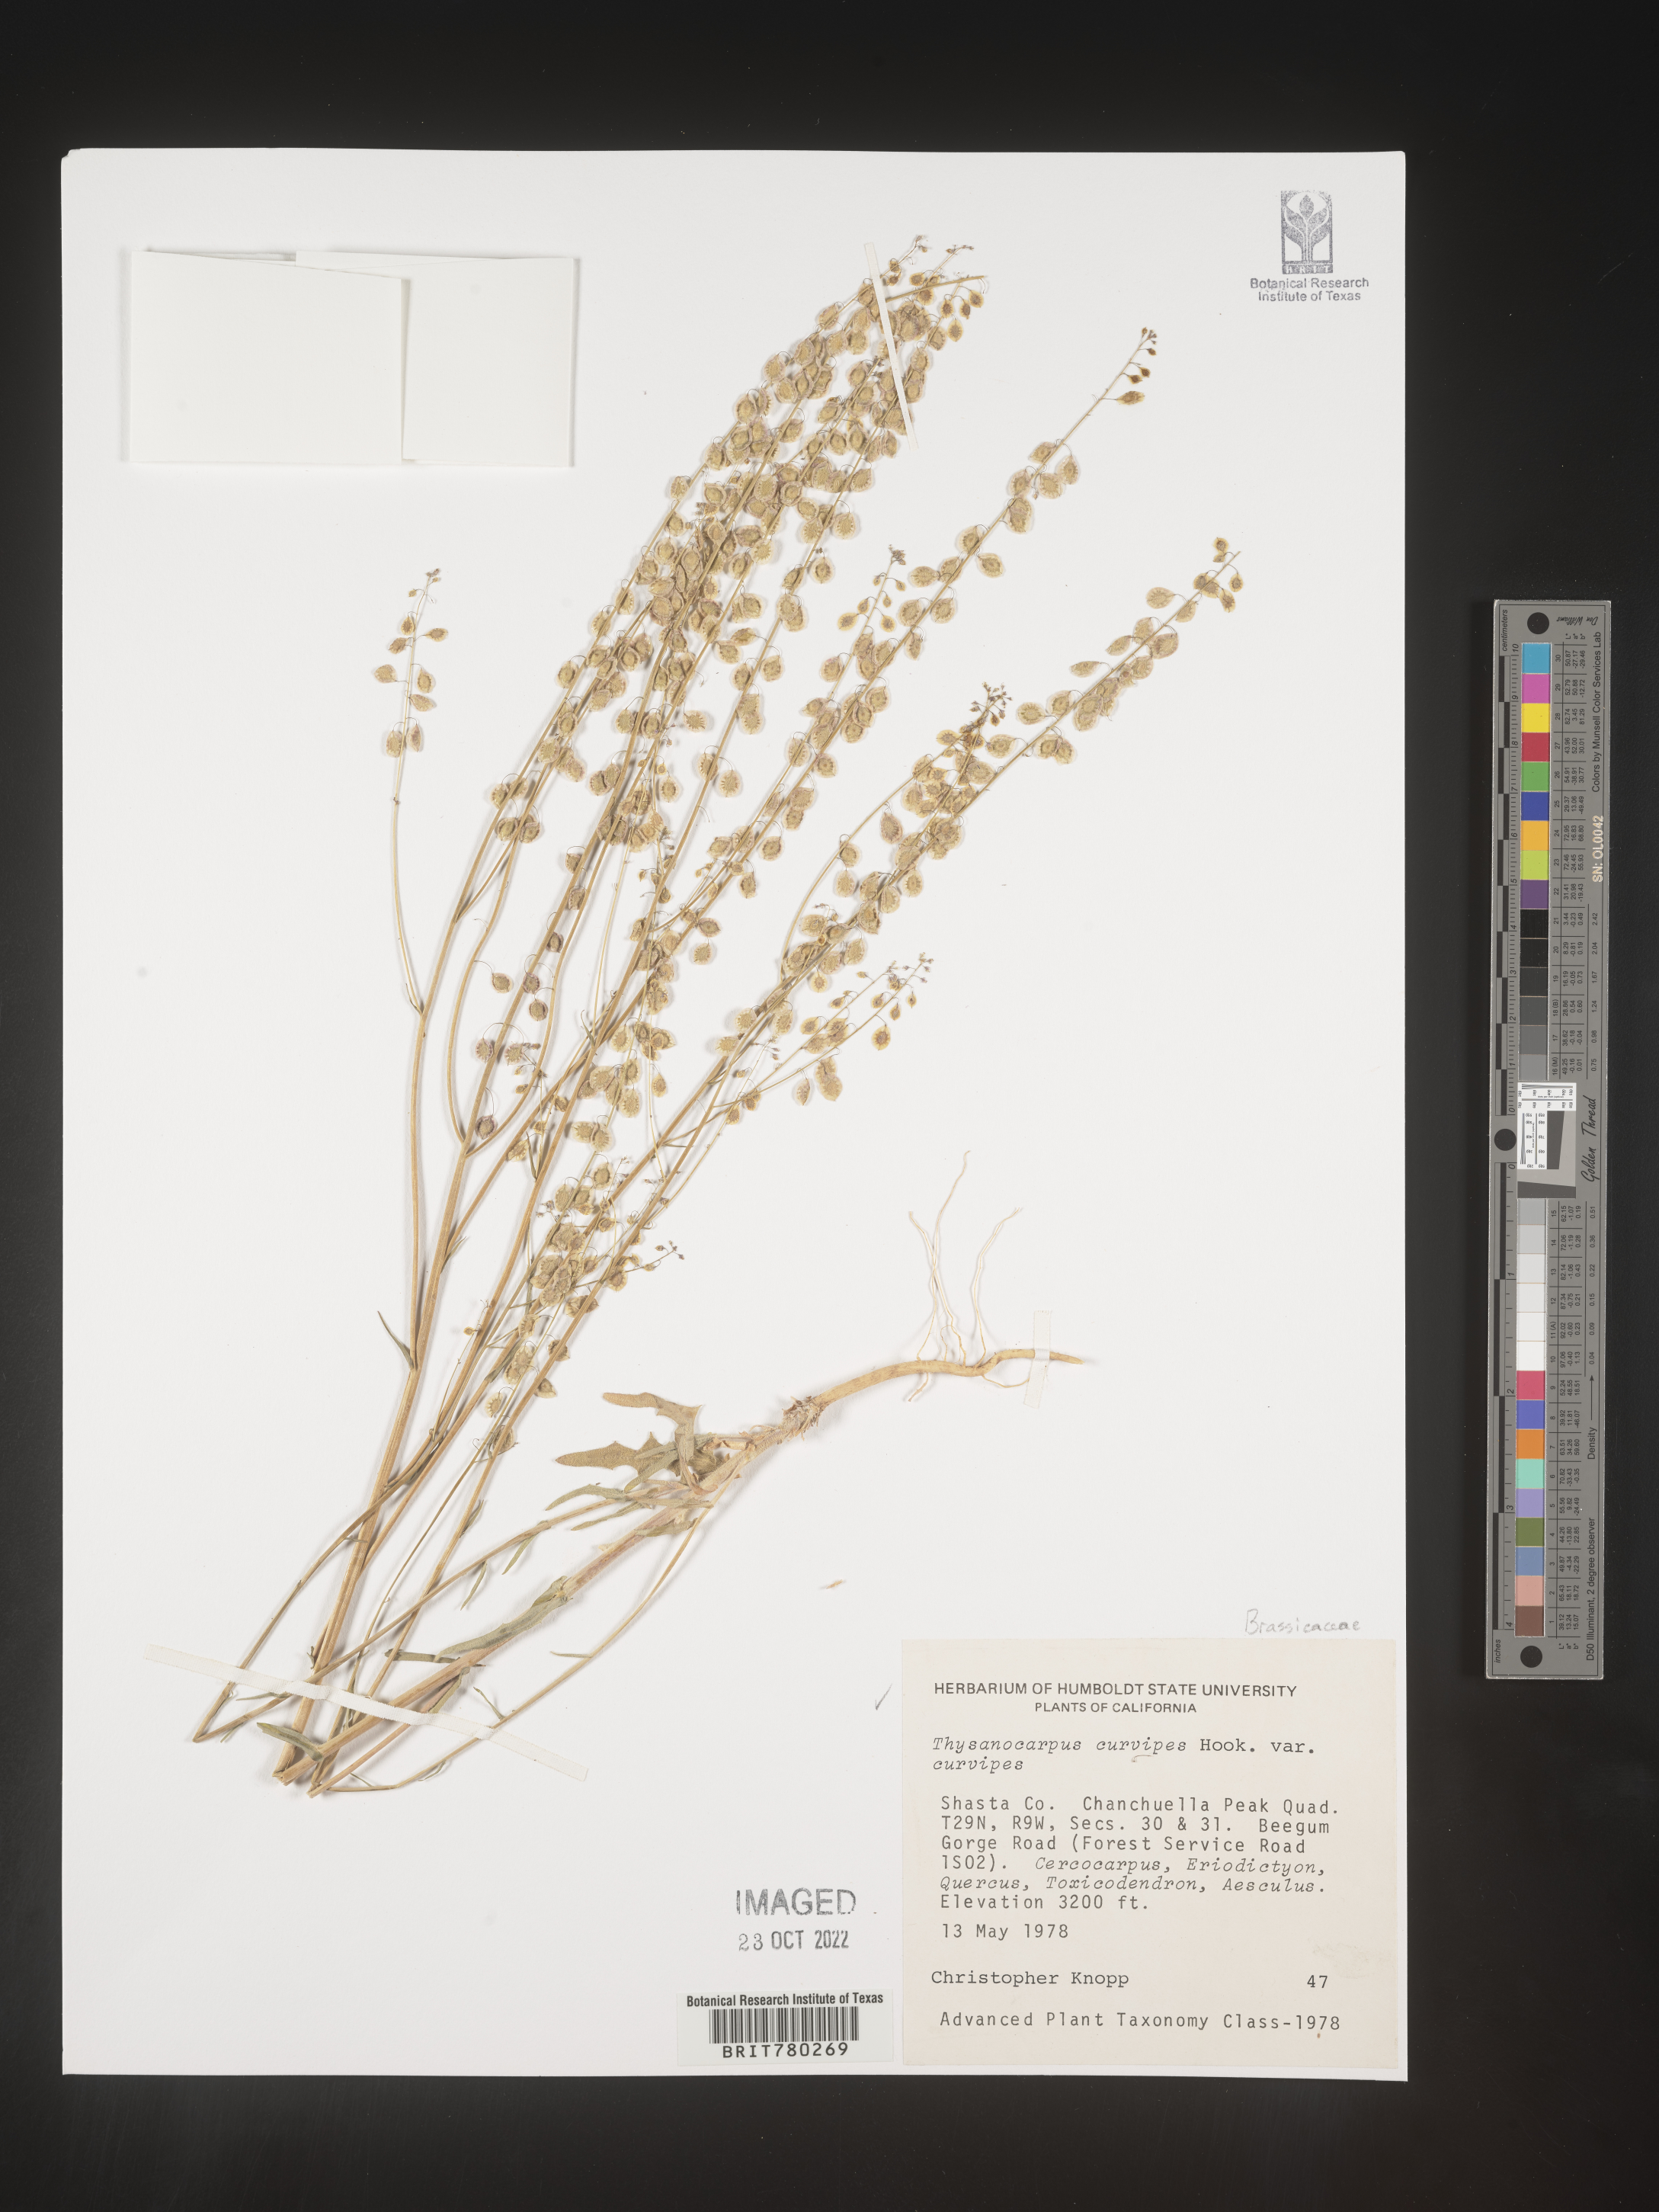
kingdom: Plantae
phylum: Tracheophyta
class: Magnoliopsida
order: Brassicales
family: Brassicaceae
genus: Thysanocarpus
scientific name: Thysanocarpus
